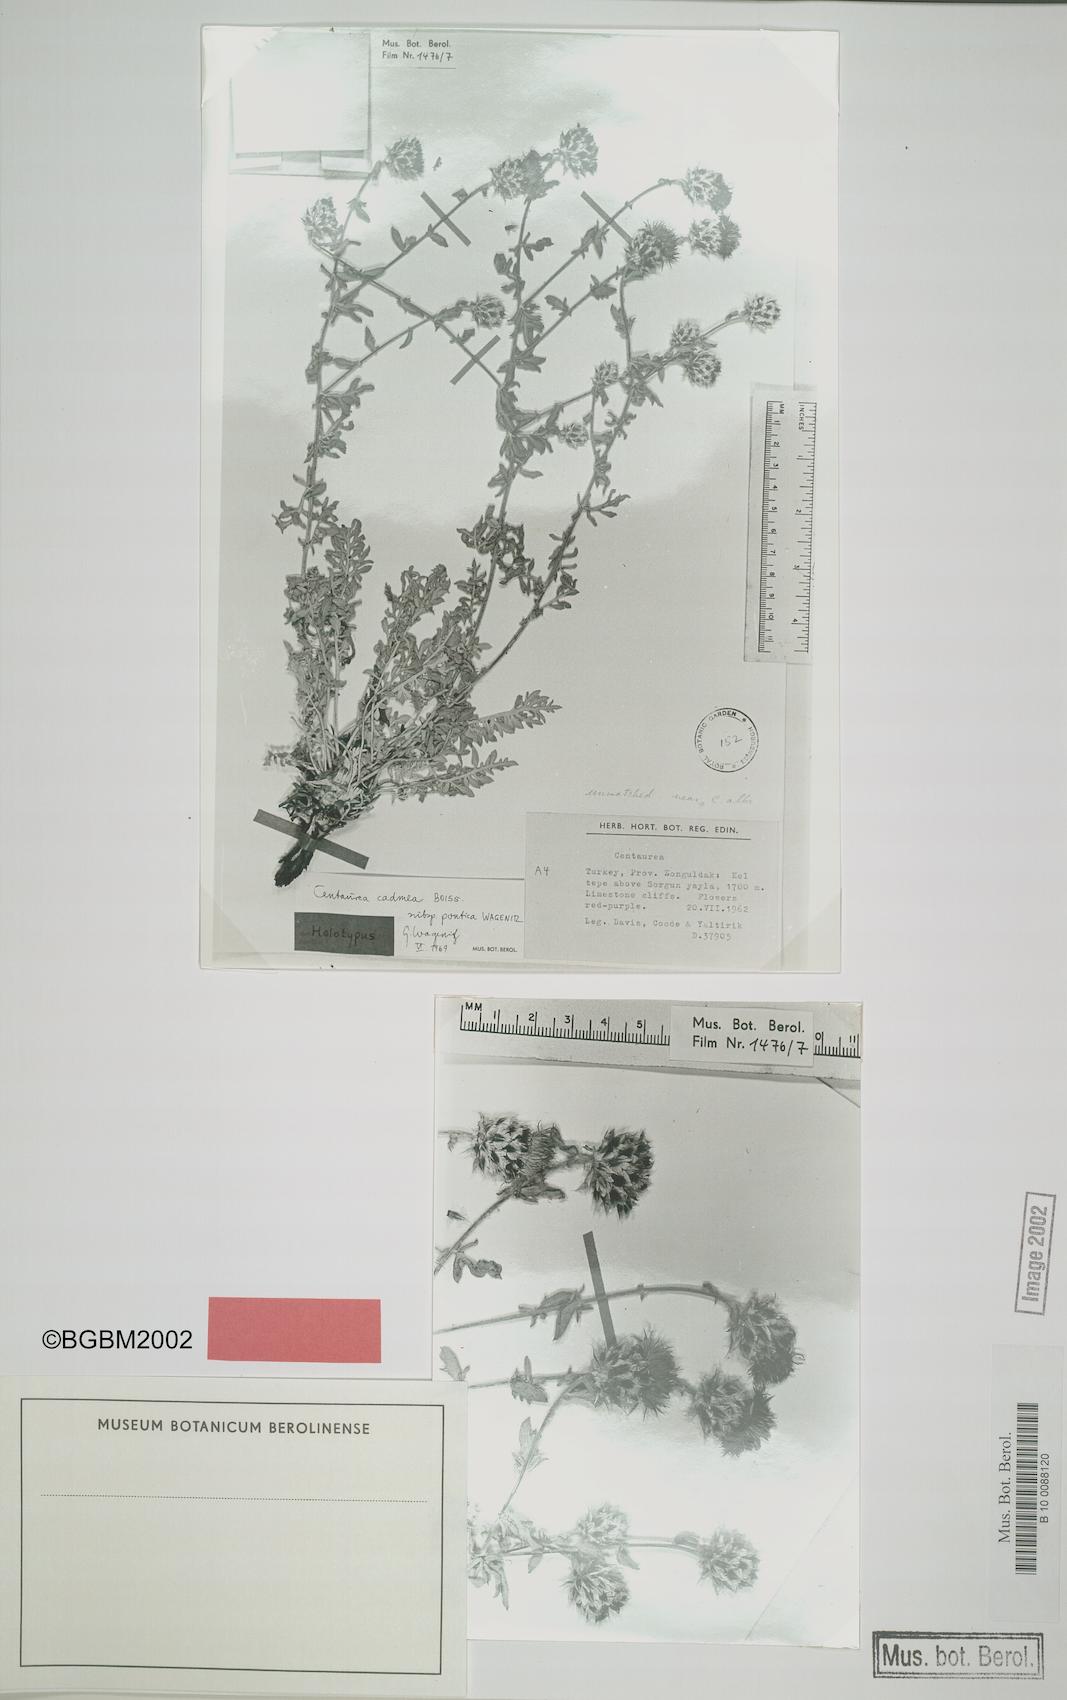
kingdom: Plantae
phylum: Tracheophyta
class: Magnoliopsida
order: Asterales
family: Asteraceae
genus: Centaurea
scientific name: Centaurea cadmea
